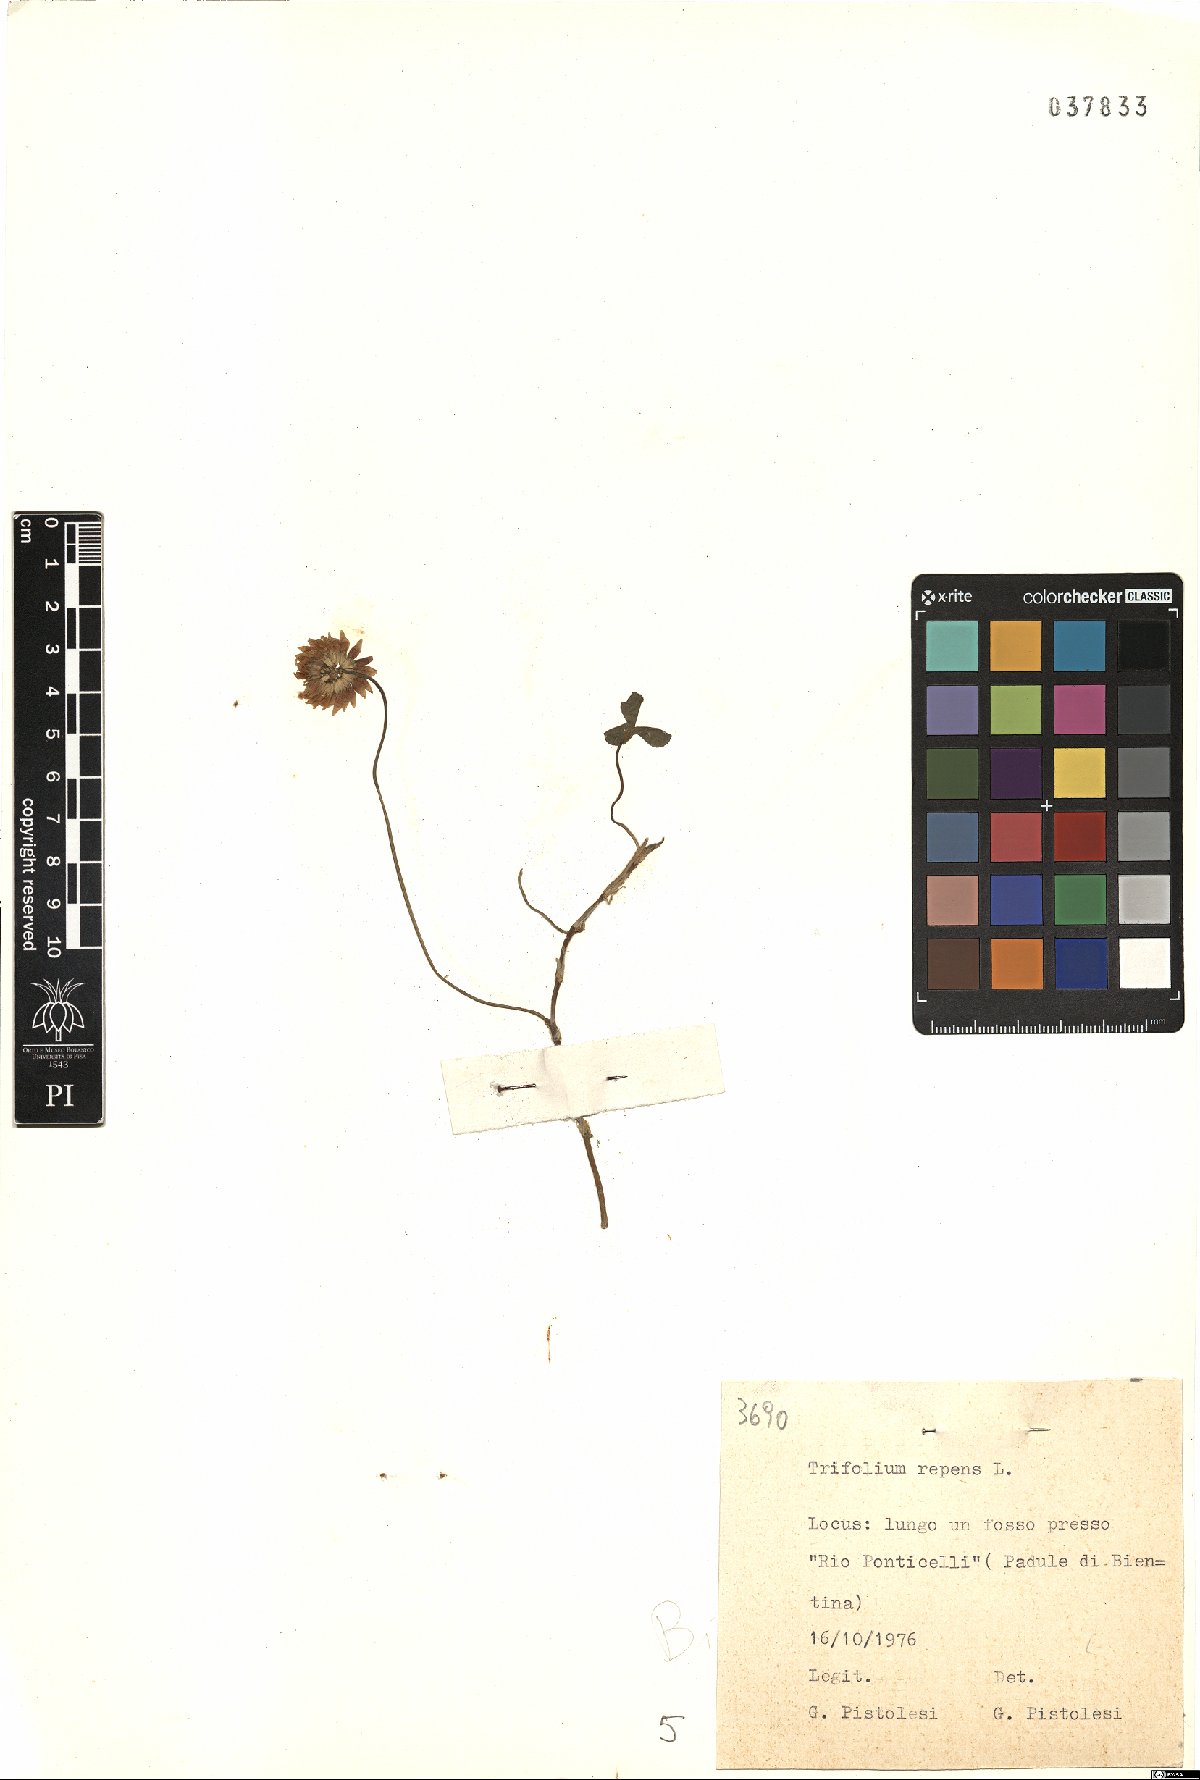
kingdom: Plantae
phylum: Tracheophyta
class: Magnoliopsida
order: Fabales
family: Fabaceae
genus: Trifolium
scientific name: Trifolium repens
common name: White clover
